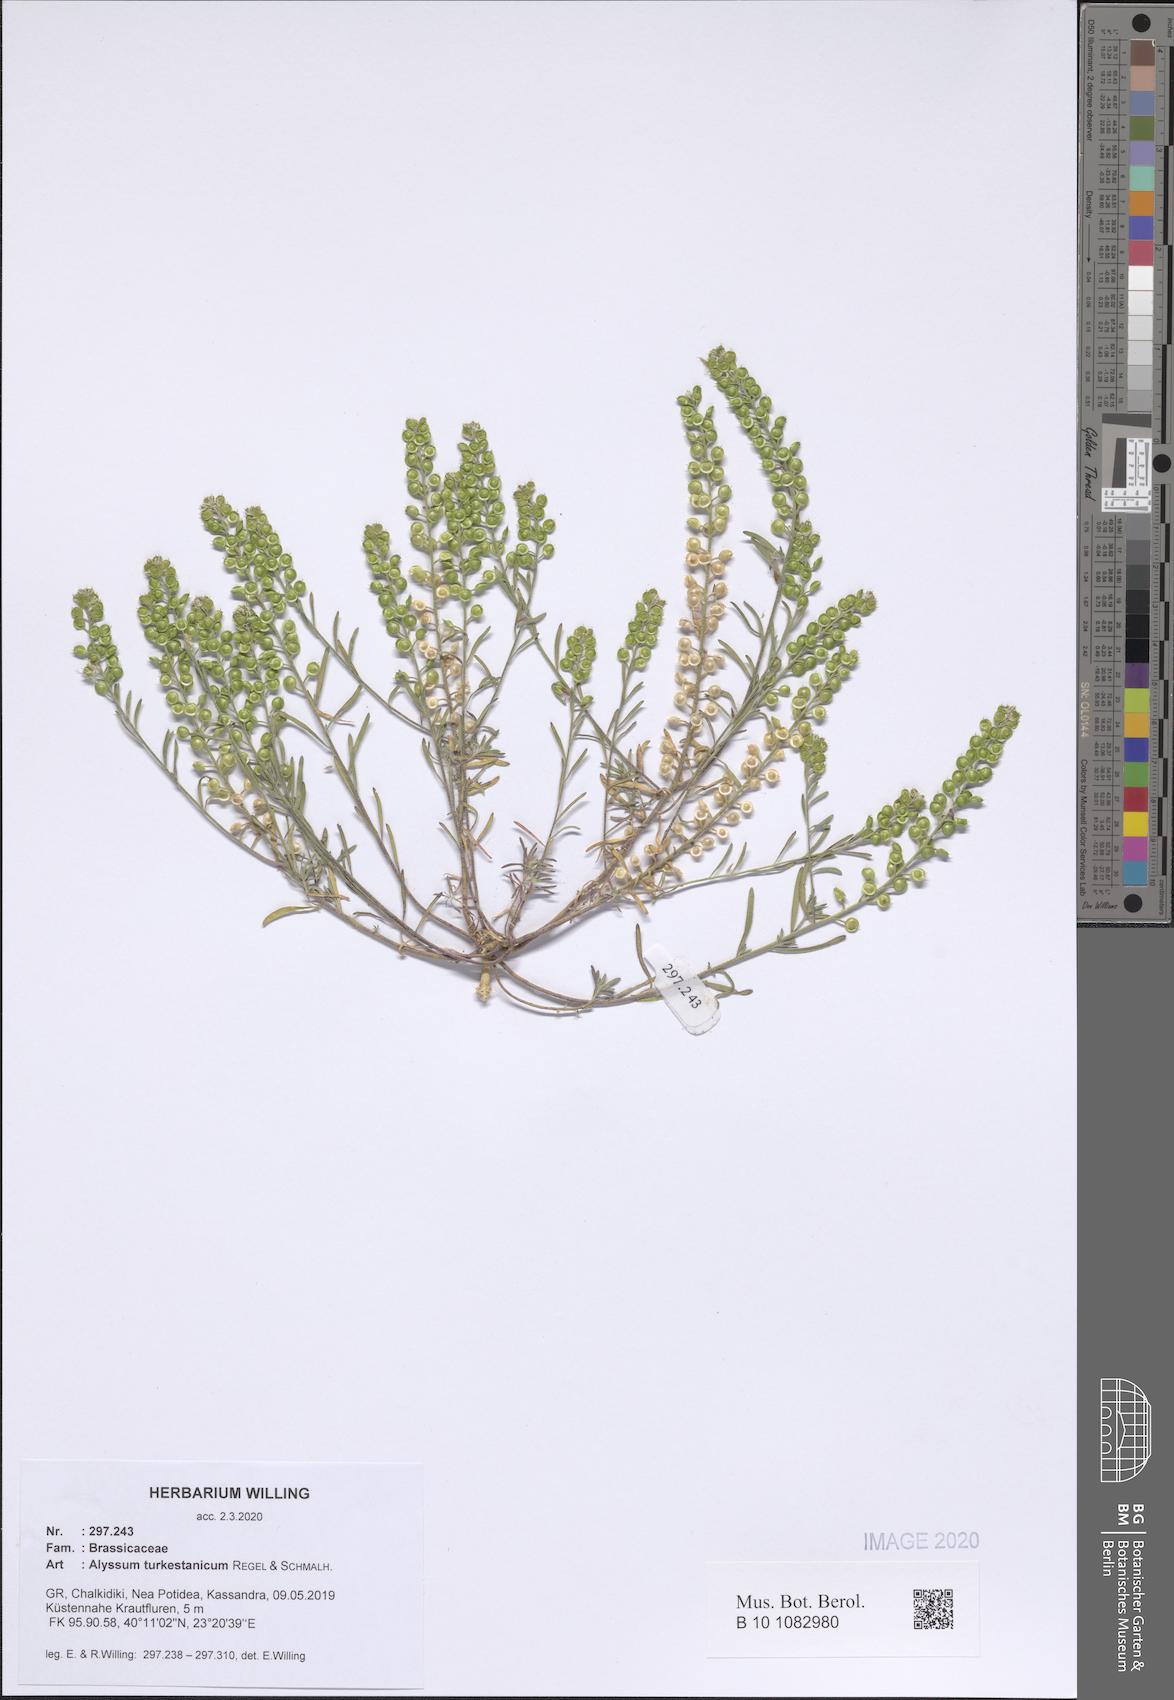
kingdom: Plantae
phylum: Tracheophyta
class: Magnoliopsida
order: Brassicales
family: Brassicaceae
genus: Alyssum
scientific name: Alyssum turkestanicum
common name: Desert alyssum
